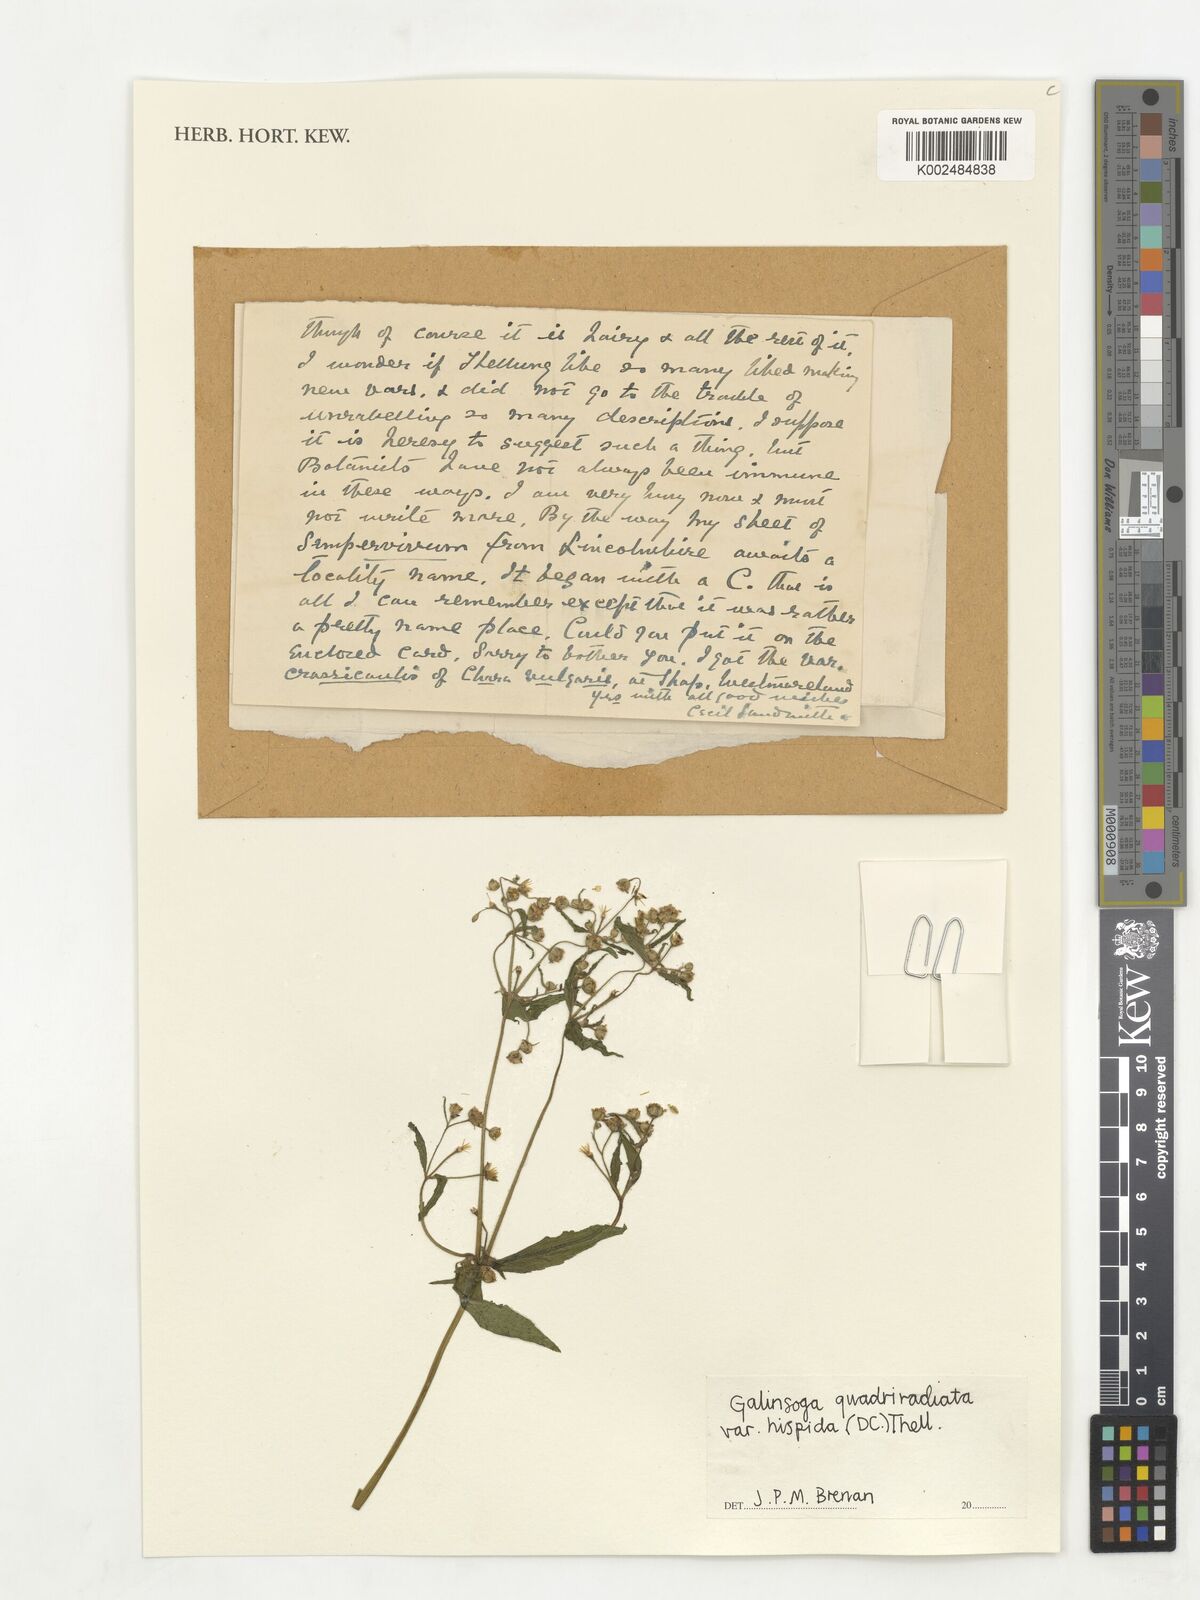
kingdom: Plantae
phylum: Tracheophyta
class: Magnoliopsida
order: Asterales
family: Asteraceae
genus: Galinsoga
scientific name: Galinsoga quadriradiata
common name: Shaggy soldier
